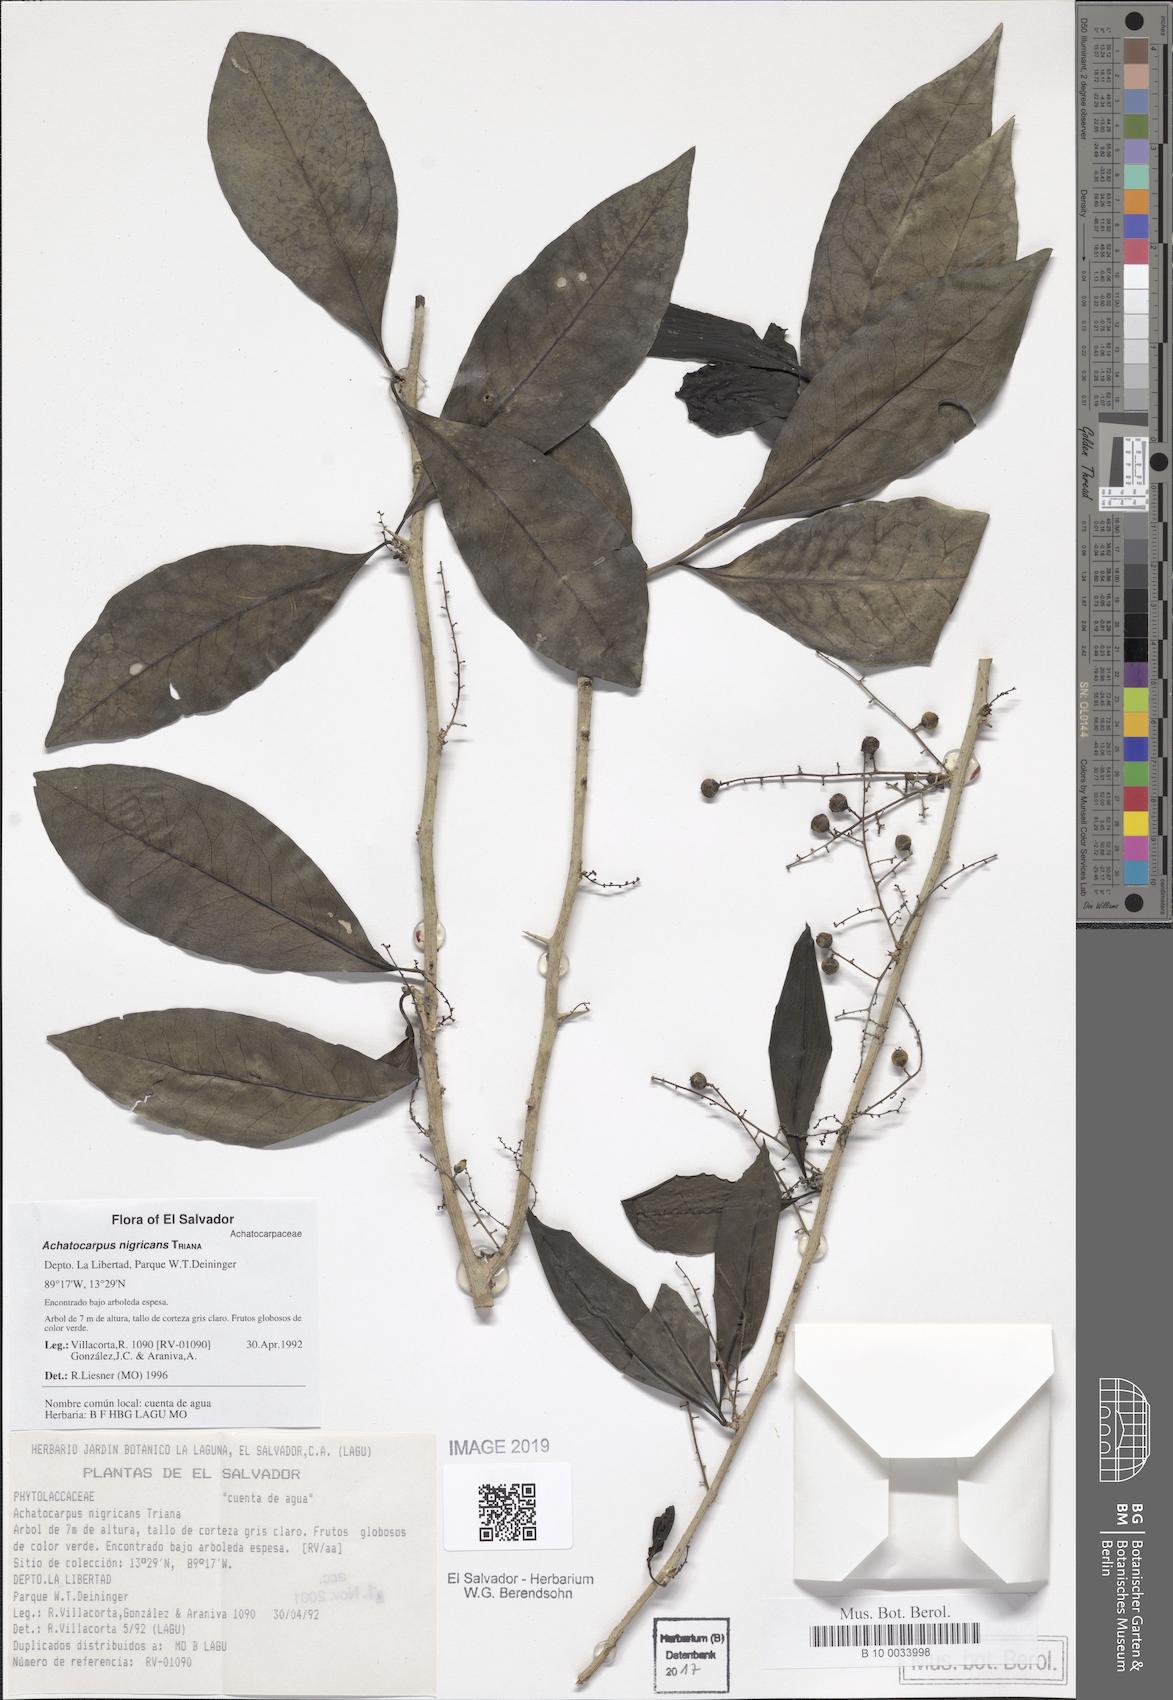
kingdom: Plantae
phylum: Tracheophyta
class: Magnoliopsida
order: Caryophyllales
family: Achatocarpaceae
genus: Achatocarpus
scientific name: Achatocarpus nigricans
